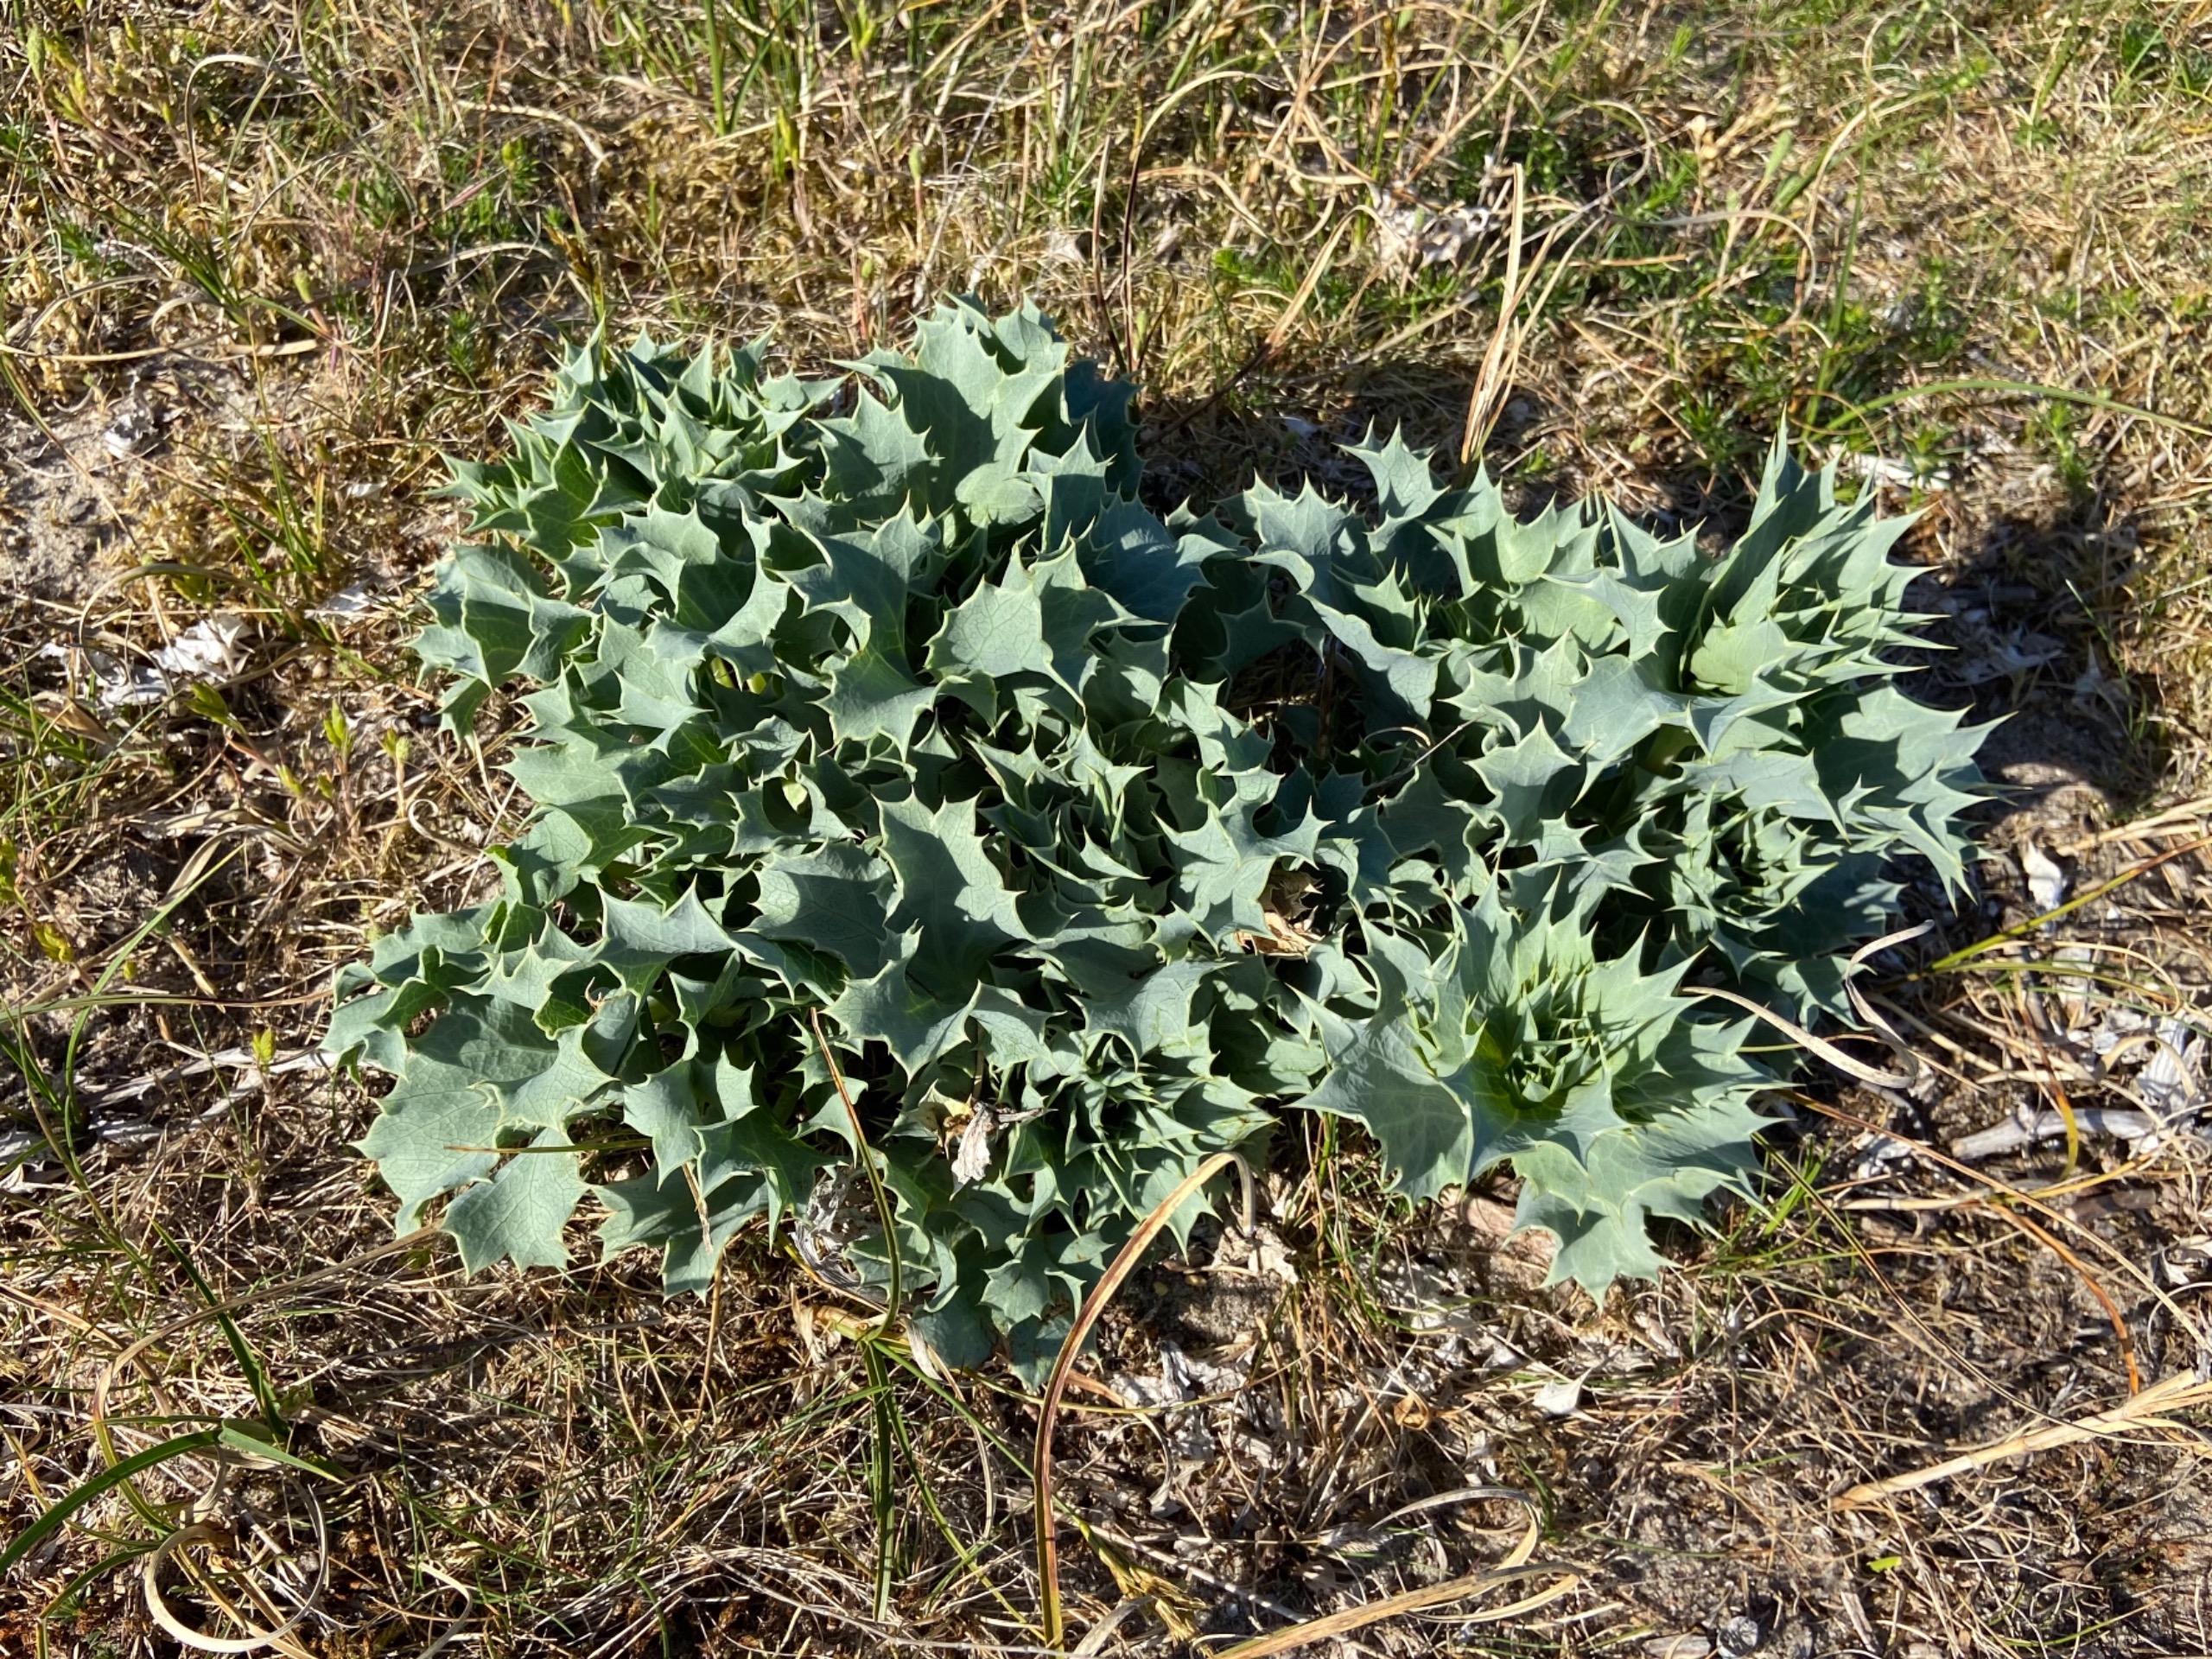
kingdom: Plantae
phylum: Tracheophyta
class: Magnoliopsida
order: Apiales
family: Apiaceae
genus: Eryngium
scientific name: Eryngium maritimum
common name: Strand-mandstro
